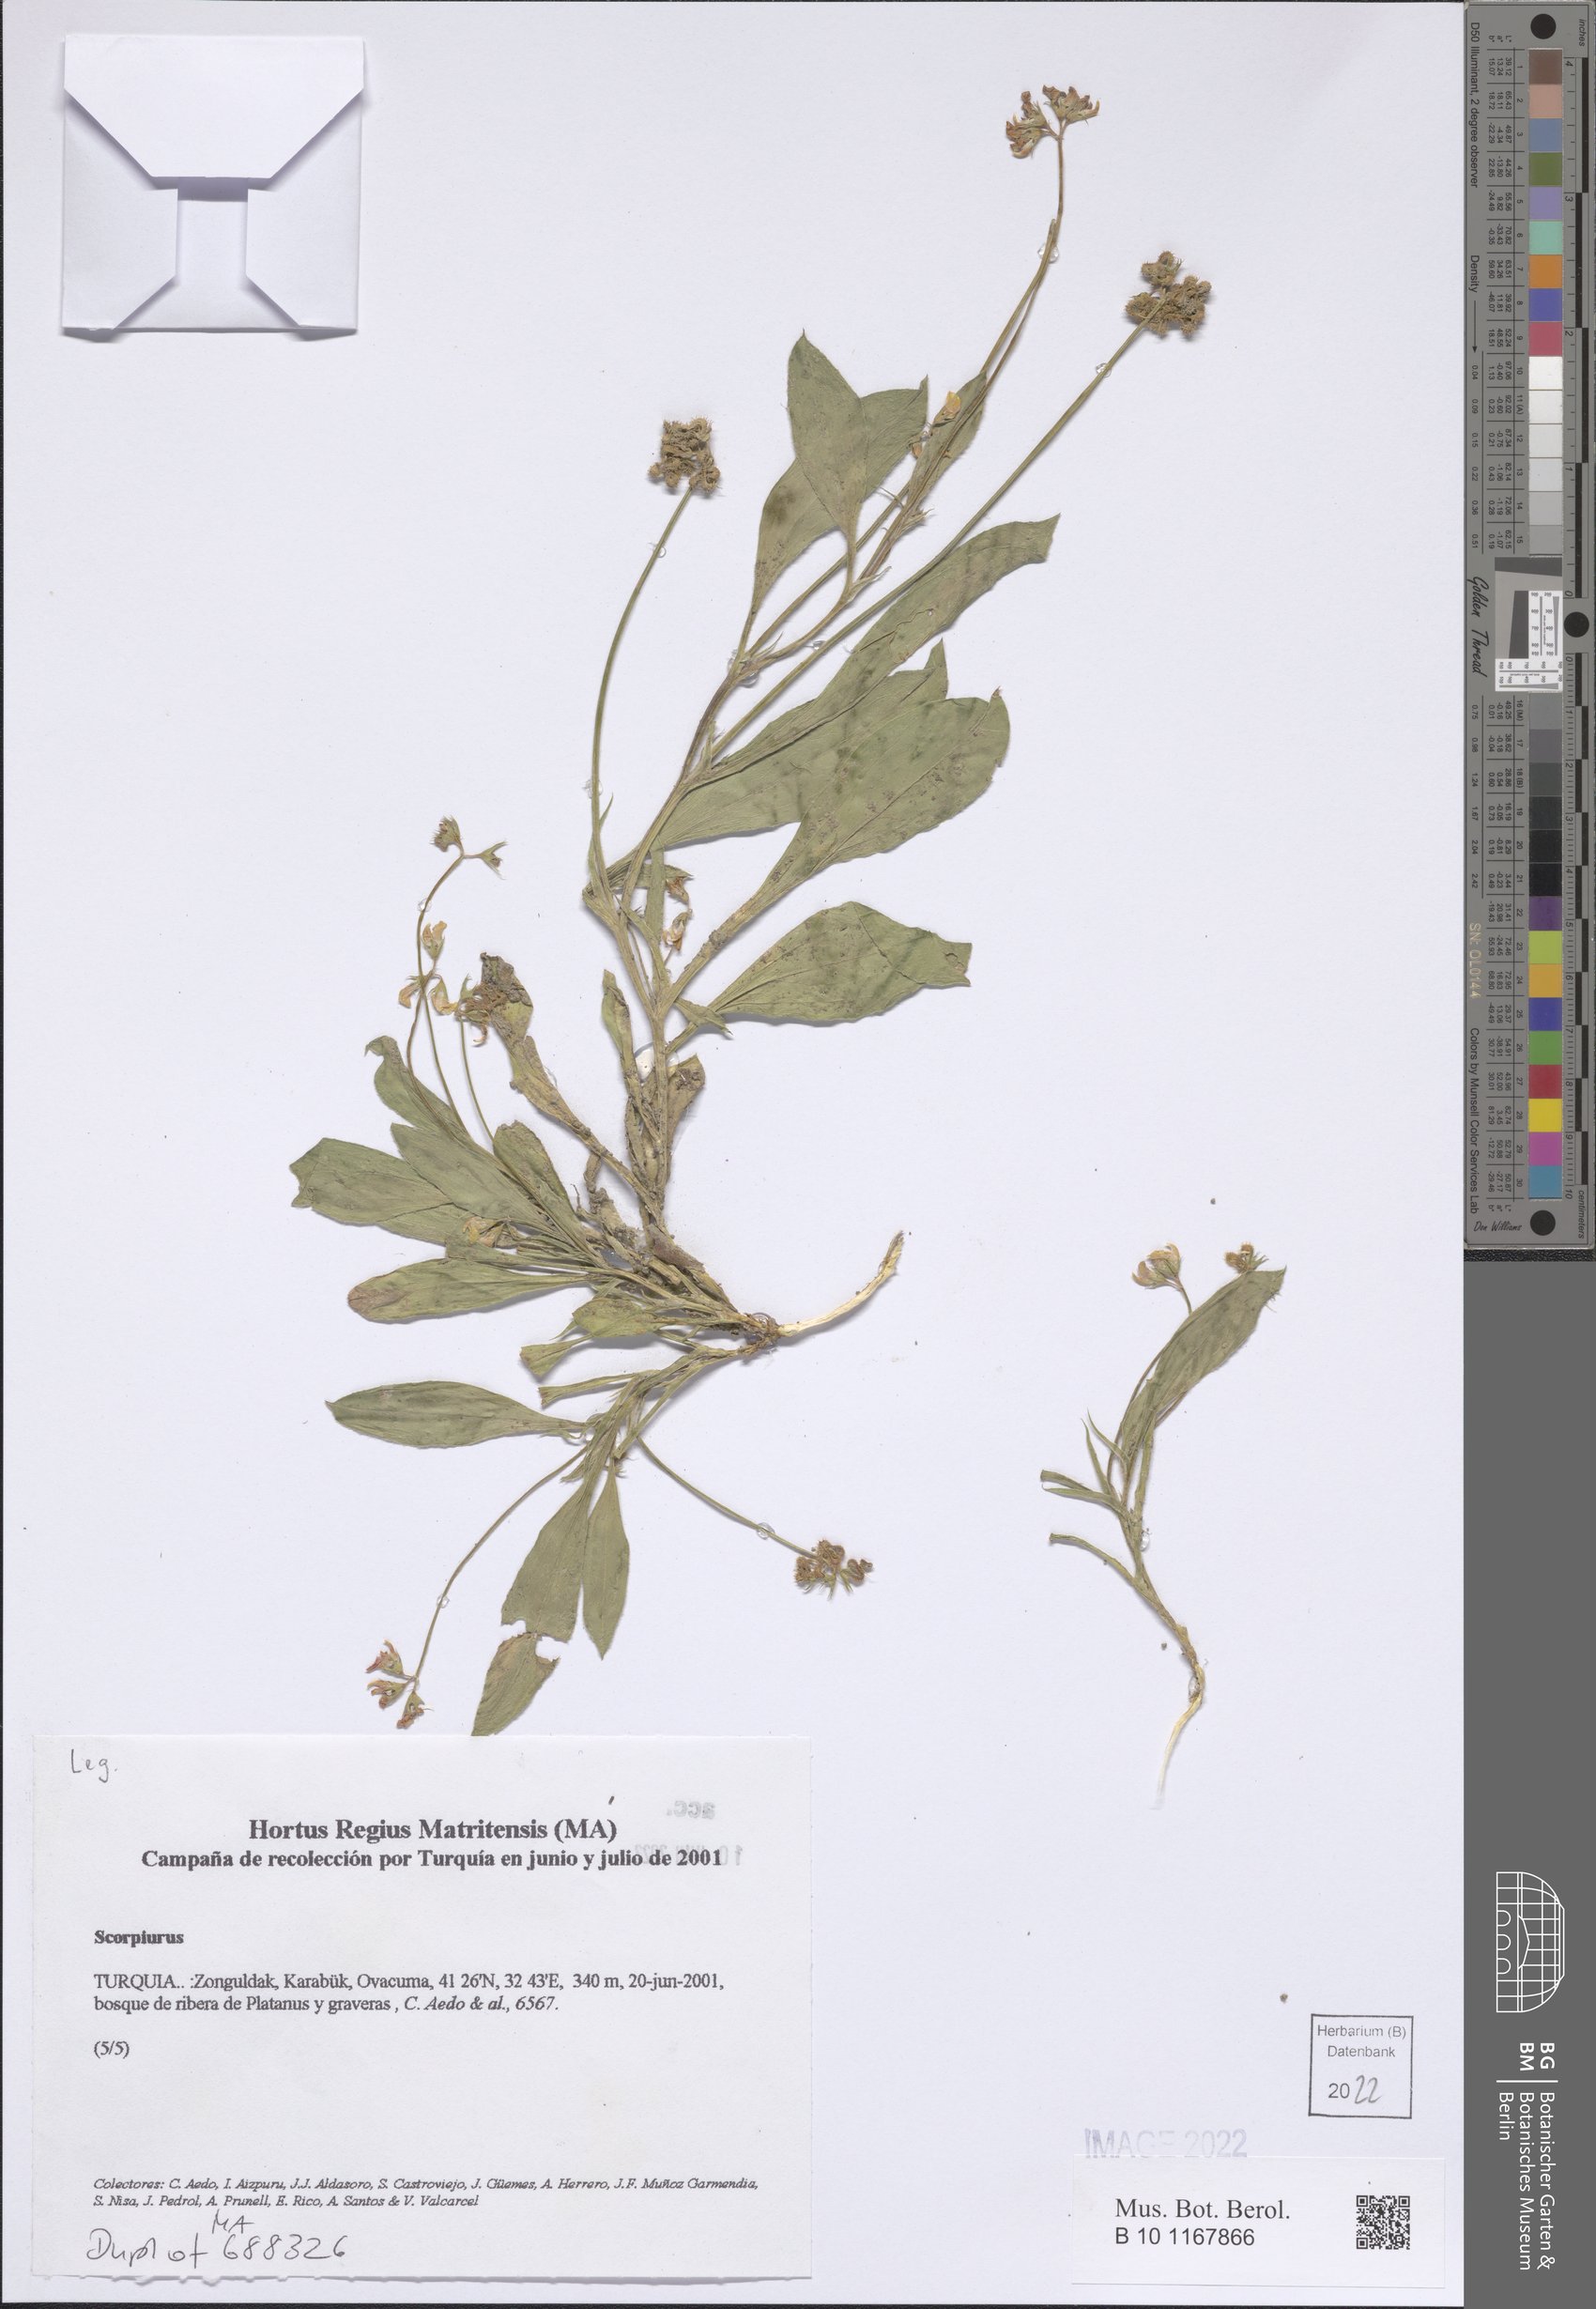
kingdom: Plantae
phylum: Tracheophyta
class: Magnoliopsida
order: Fabales
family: Fabaceae
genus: Scorpiurus
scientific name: Scorpiurus
